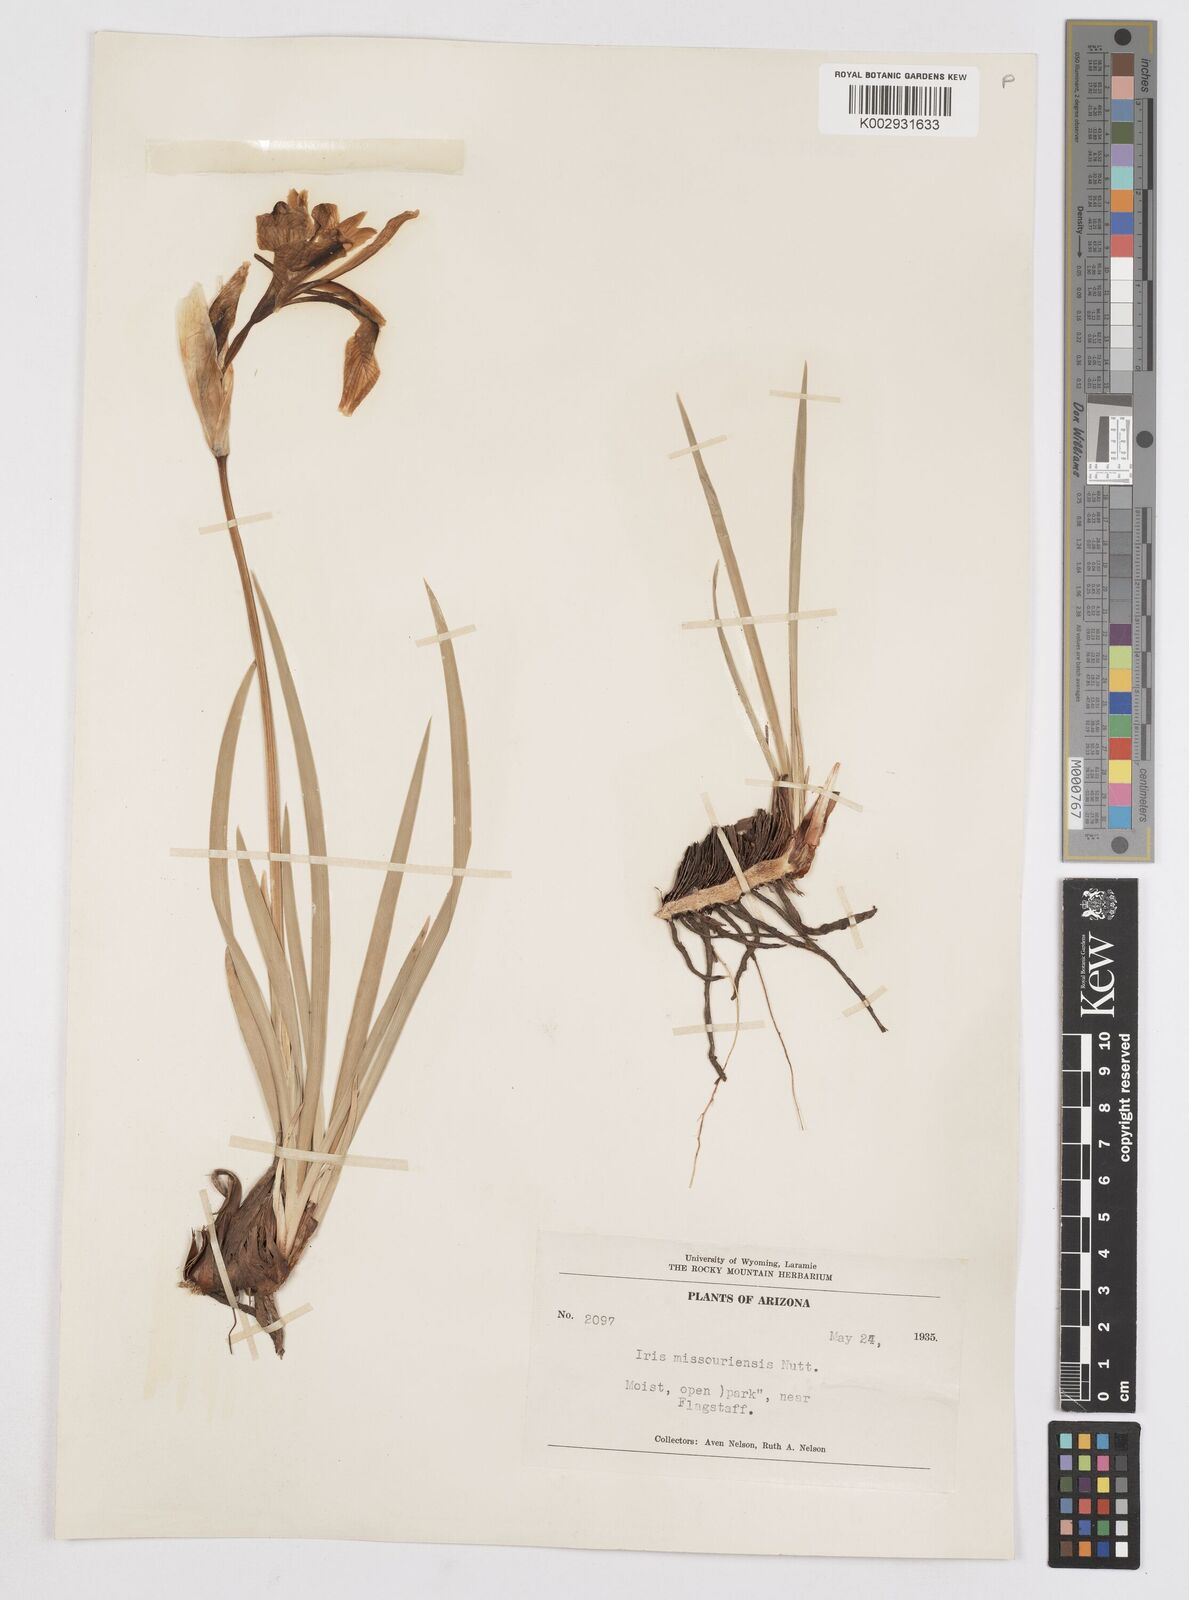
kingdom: Plantae
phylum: Tracheophyta
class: Liliopsida
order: Asparagales
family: Iridaceae
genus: Iris
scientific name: Iris missouriensis
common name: Rocky mountain iris
